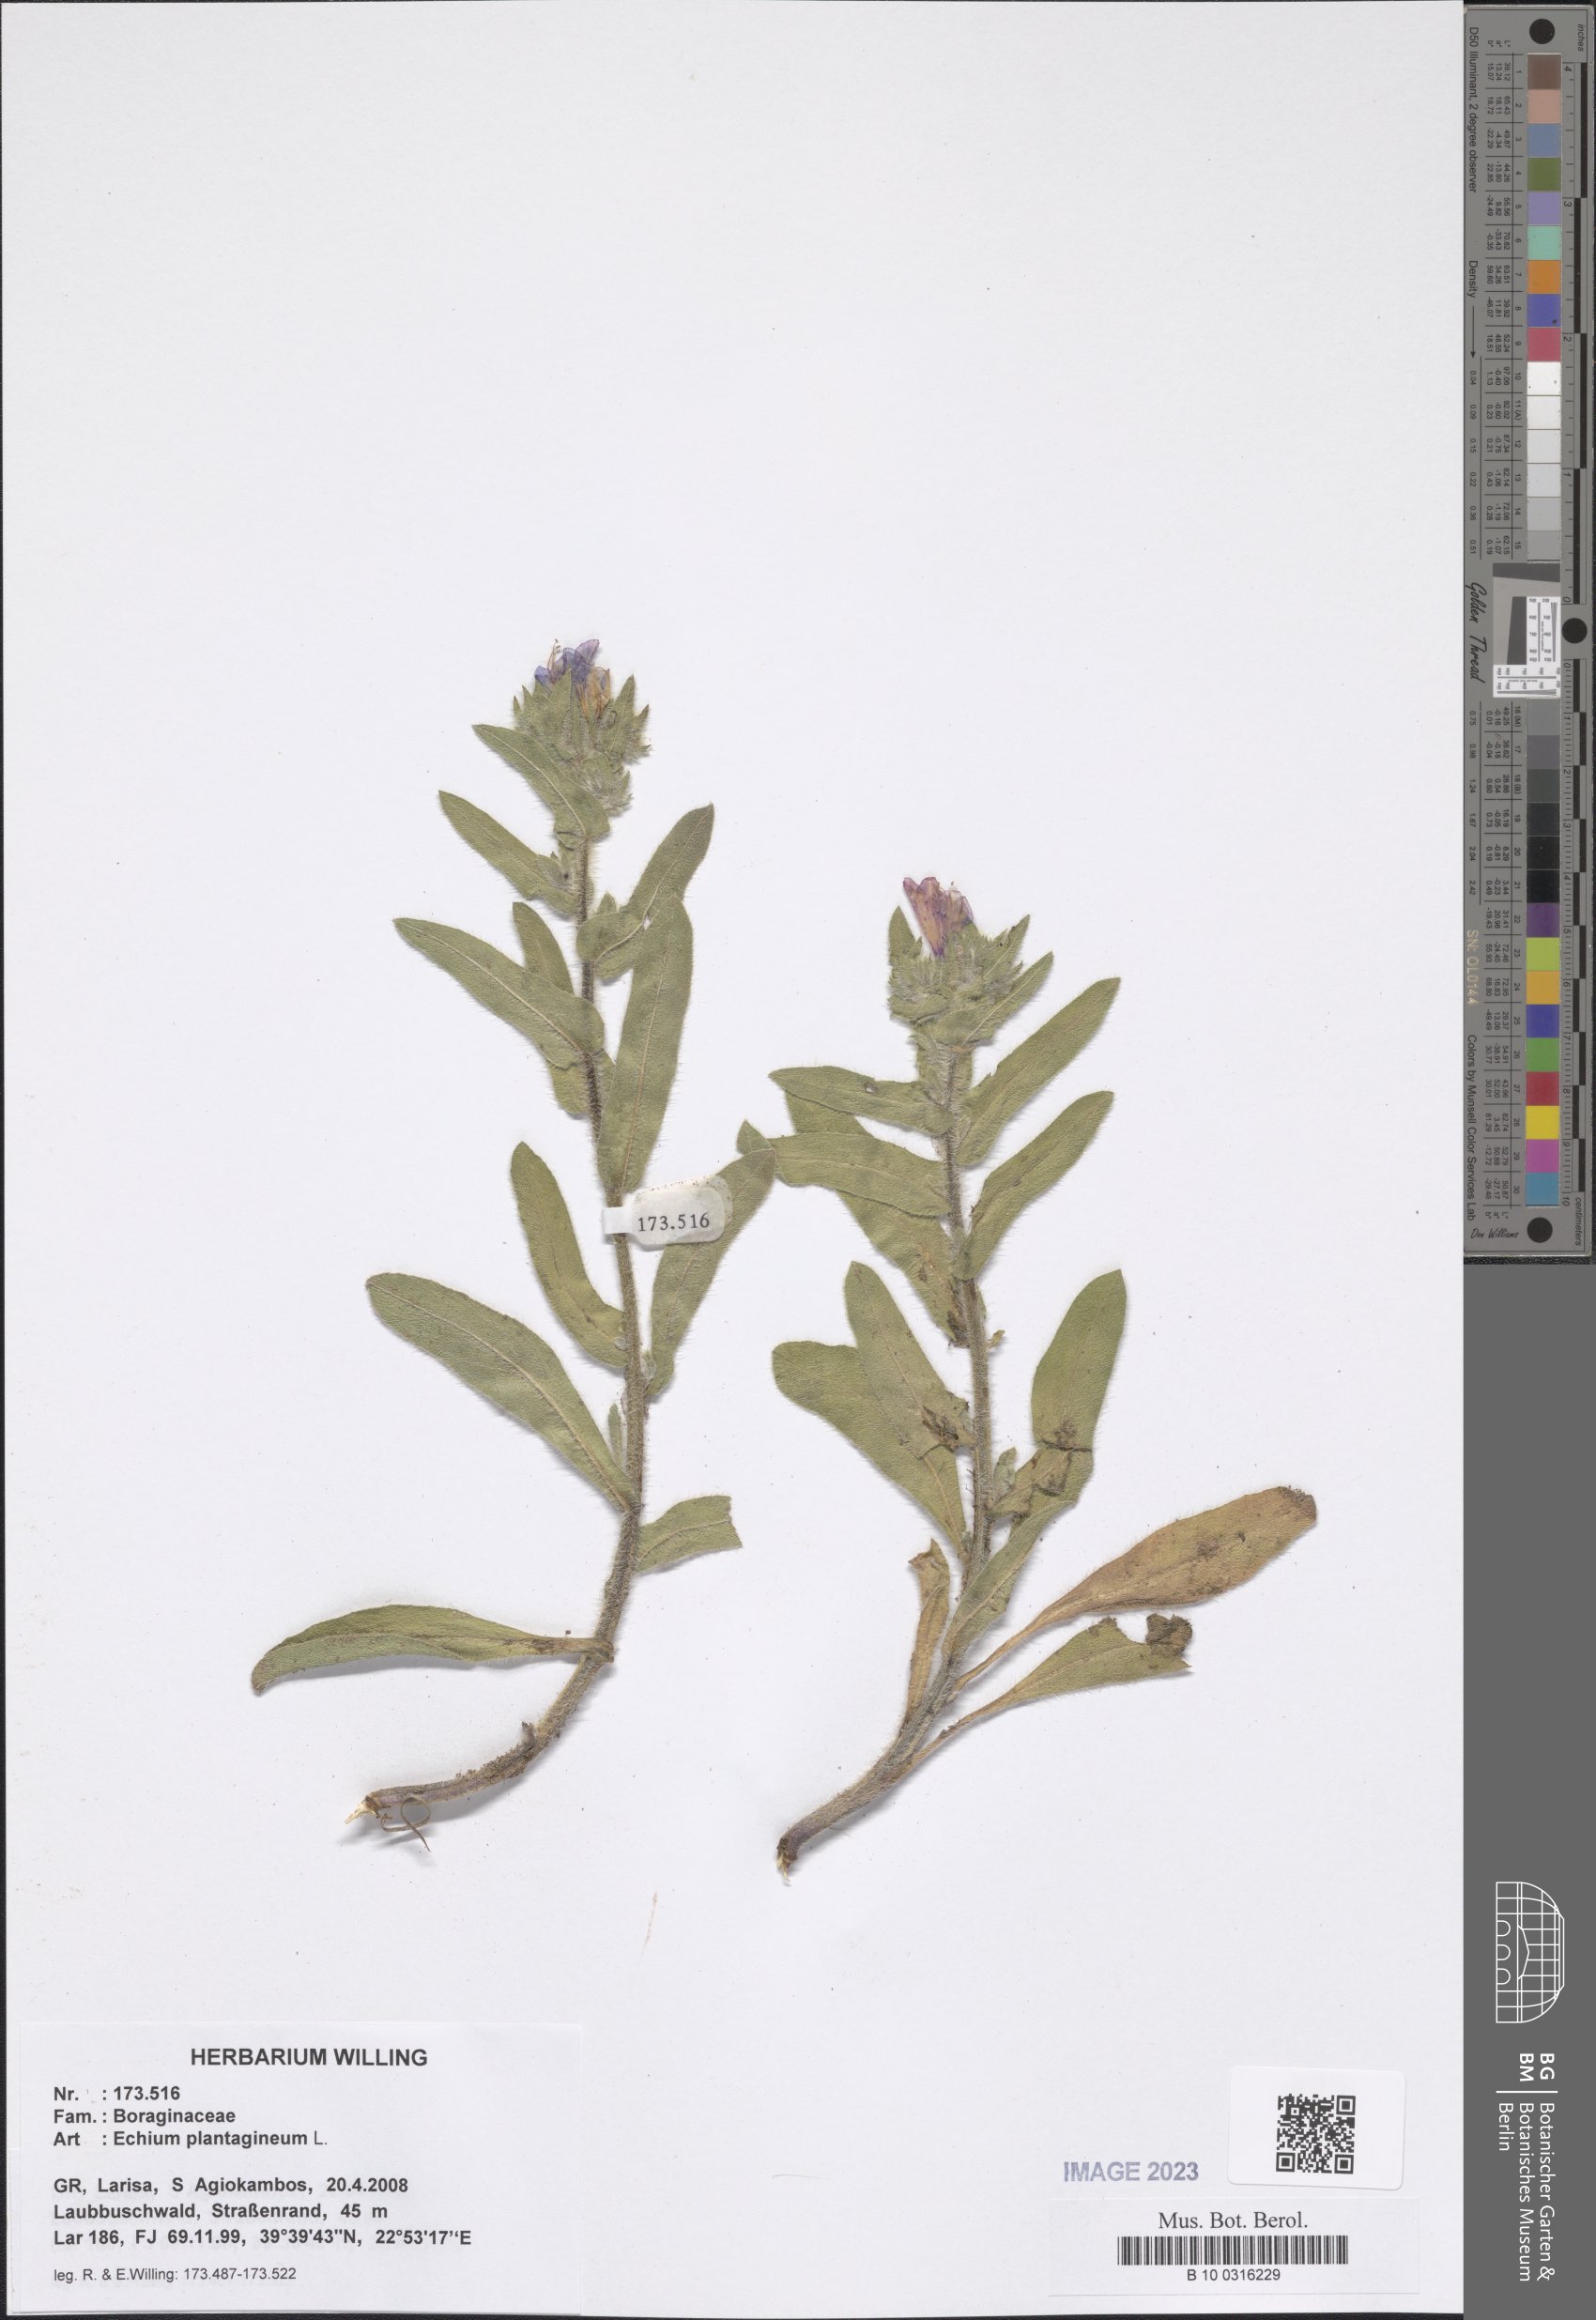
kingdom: Plantae
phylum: Tracheophyta
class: Magnoliopsida
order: Boraginales
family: Boraginaceae
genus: Echium
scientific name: Echium plantagineum
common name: Purple viper's-bugloss
